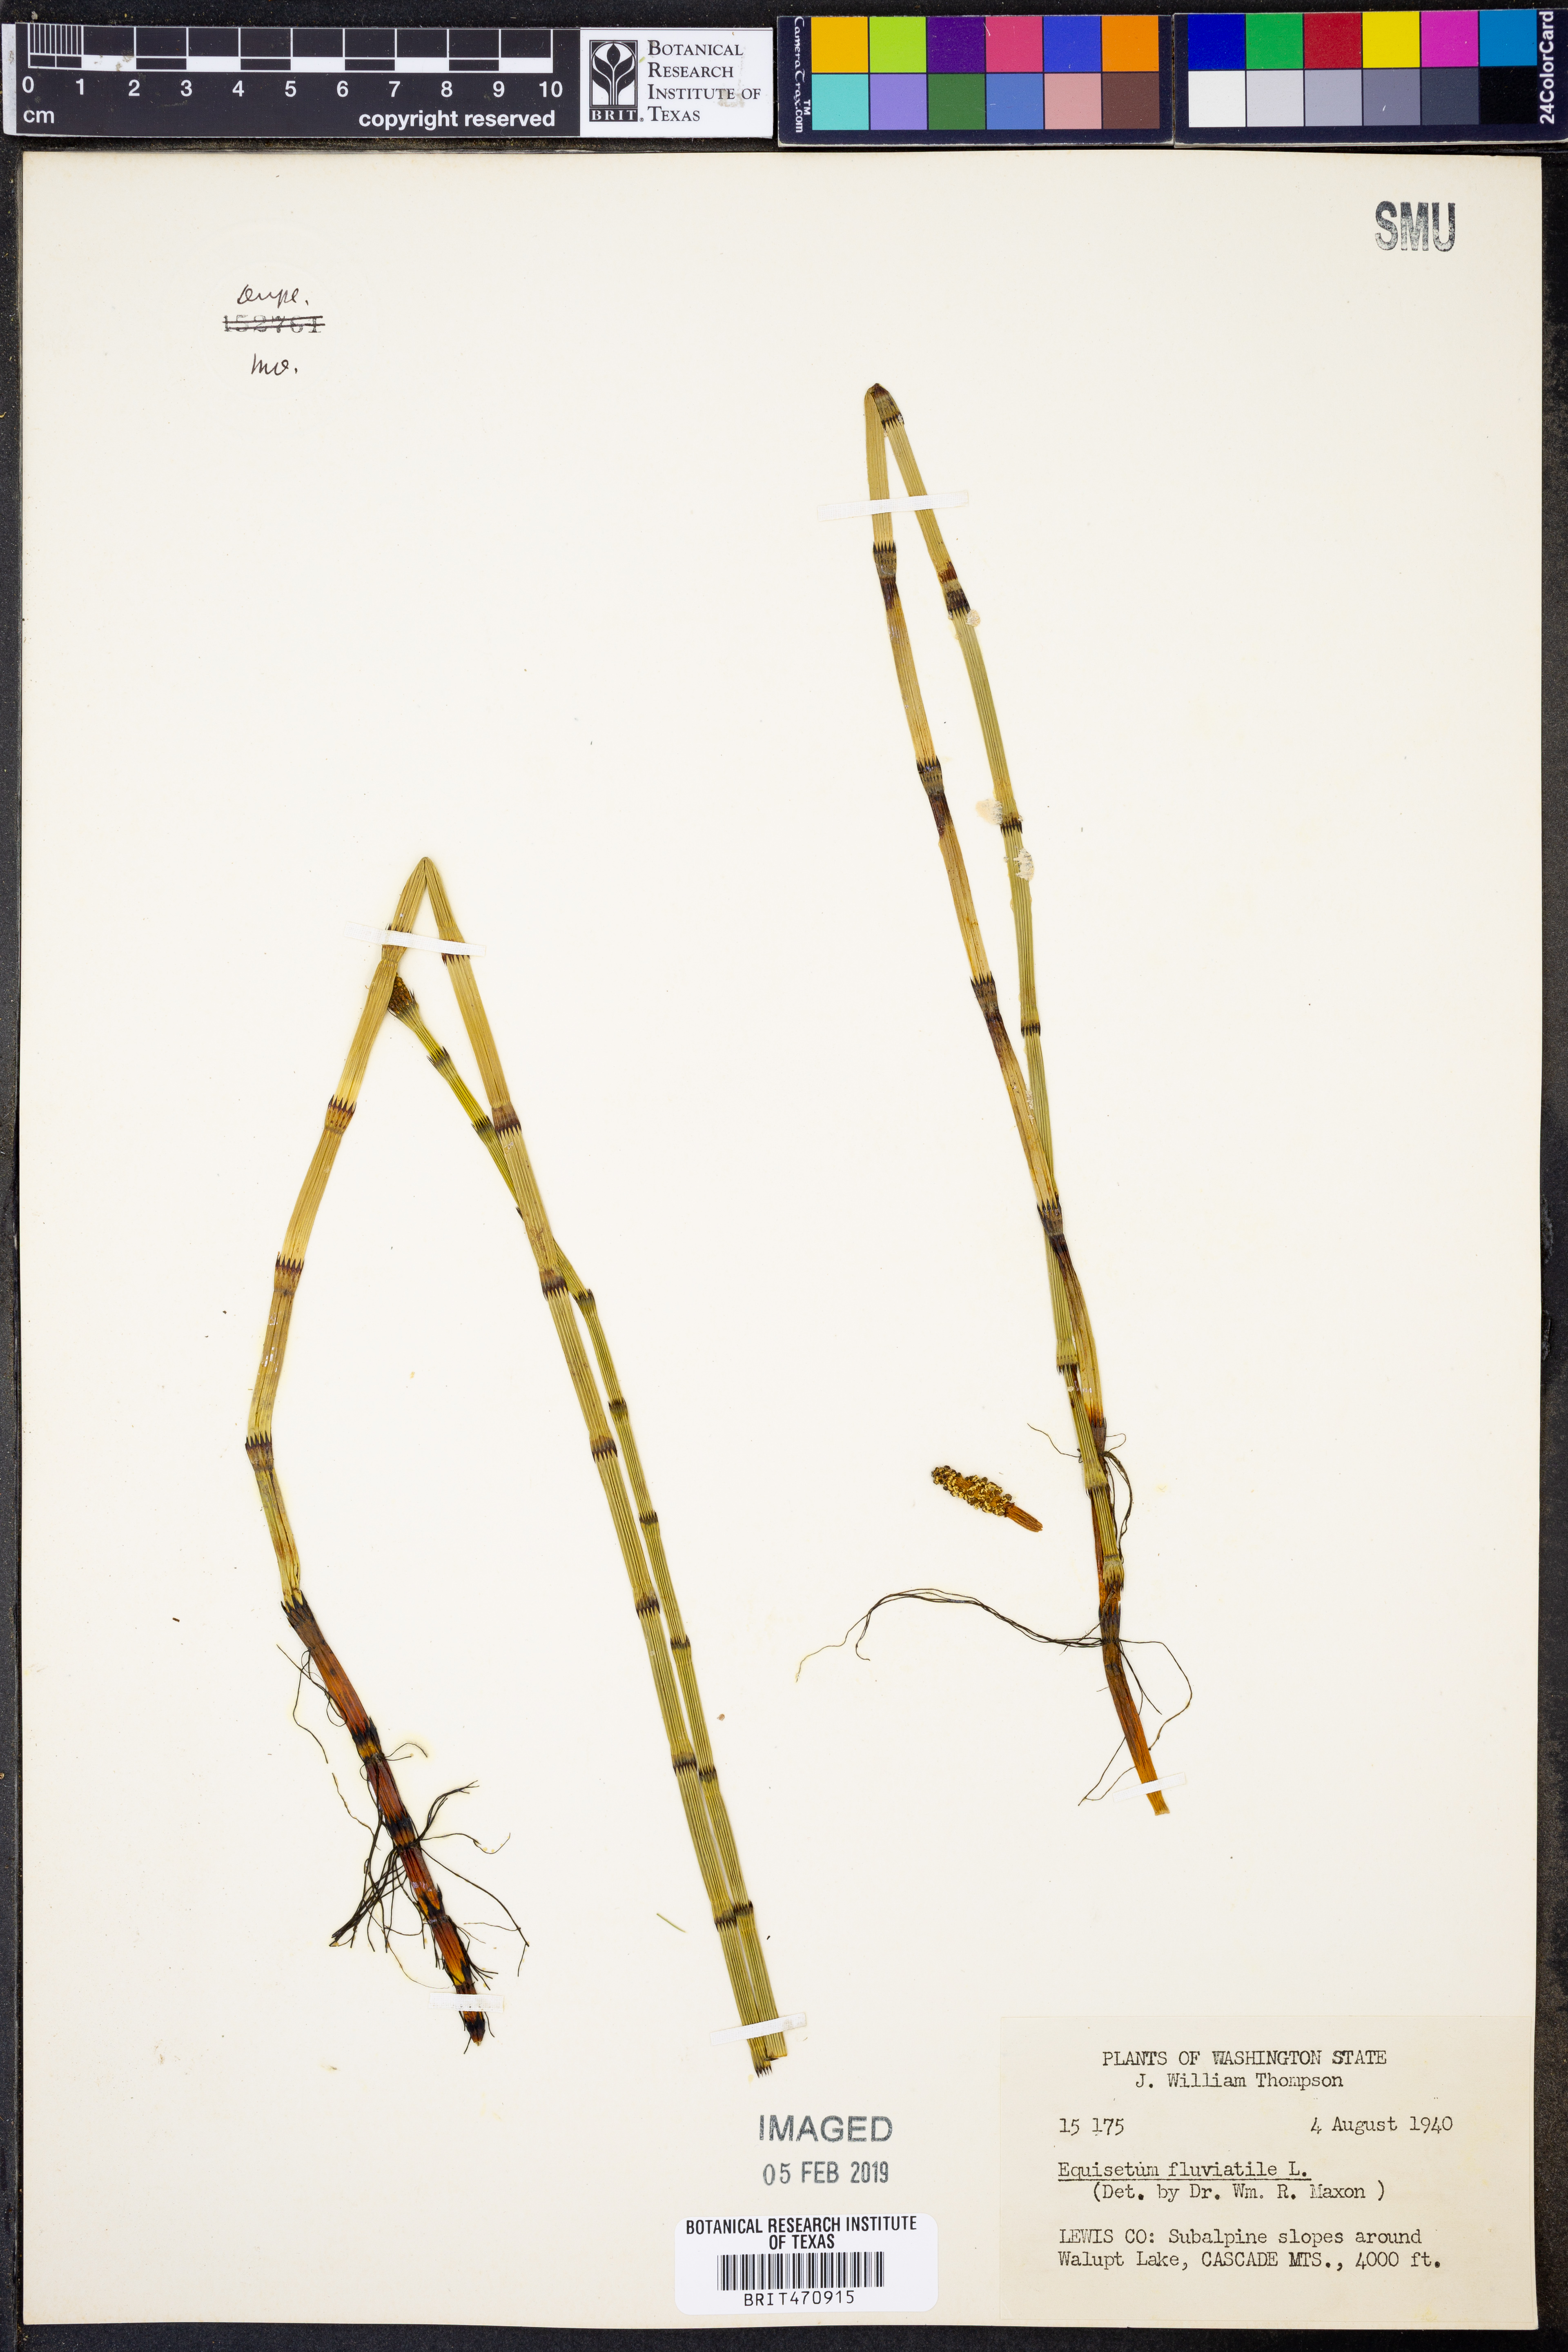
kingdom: Plantae
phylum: Tracheophyta
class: Polypodiopsida
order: Equisetales
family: Equisetaceae
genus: Equisetum
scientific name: Equisetum fluviatile
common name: Water horsetail
